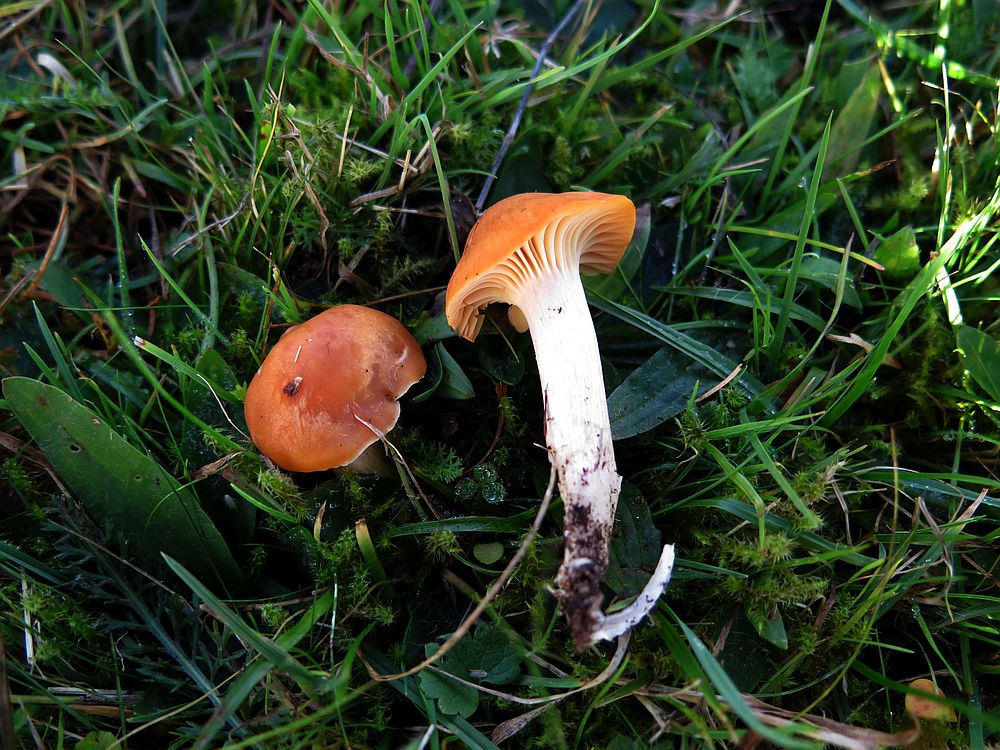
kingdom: Fungi
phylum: Basidiomycota
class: Agaricomycetes
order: Agaricales
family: Hygrophoraceae
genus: Cuphophyllus
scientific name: Cuphophyllus pratensis
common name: eng-vokshat
